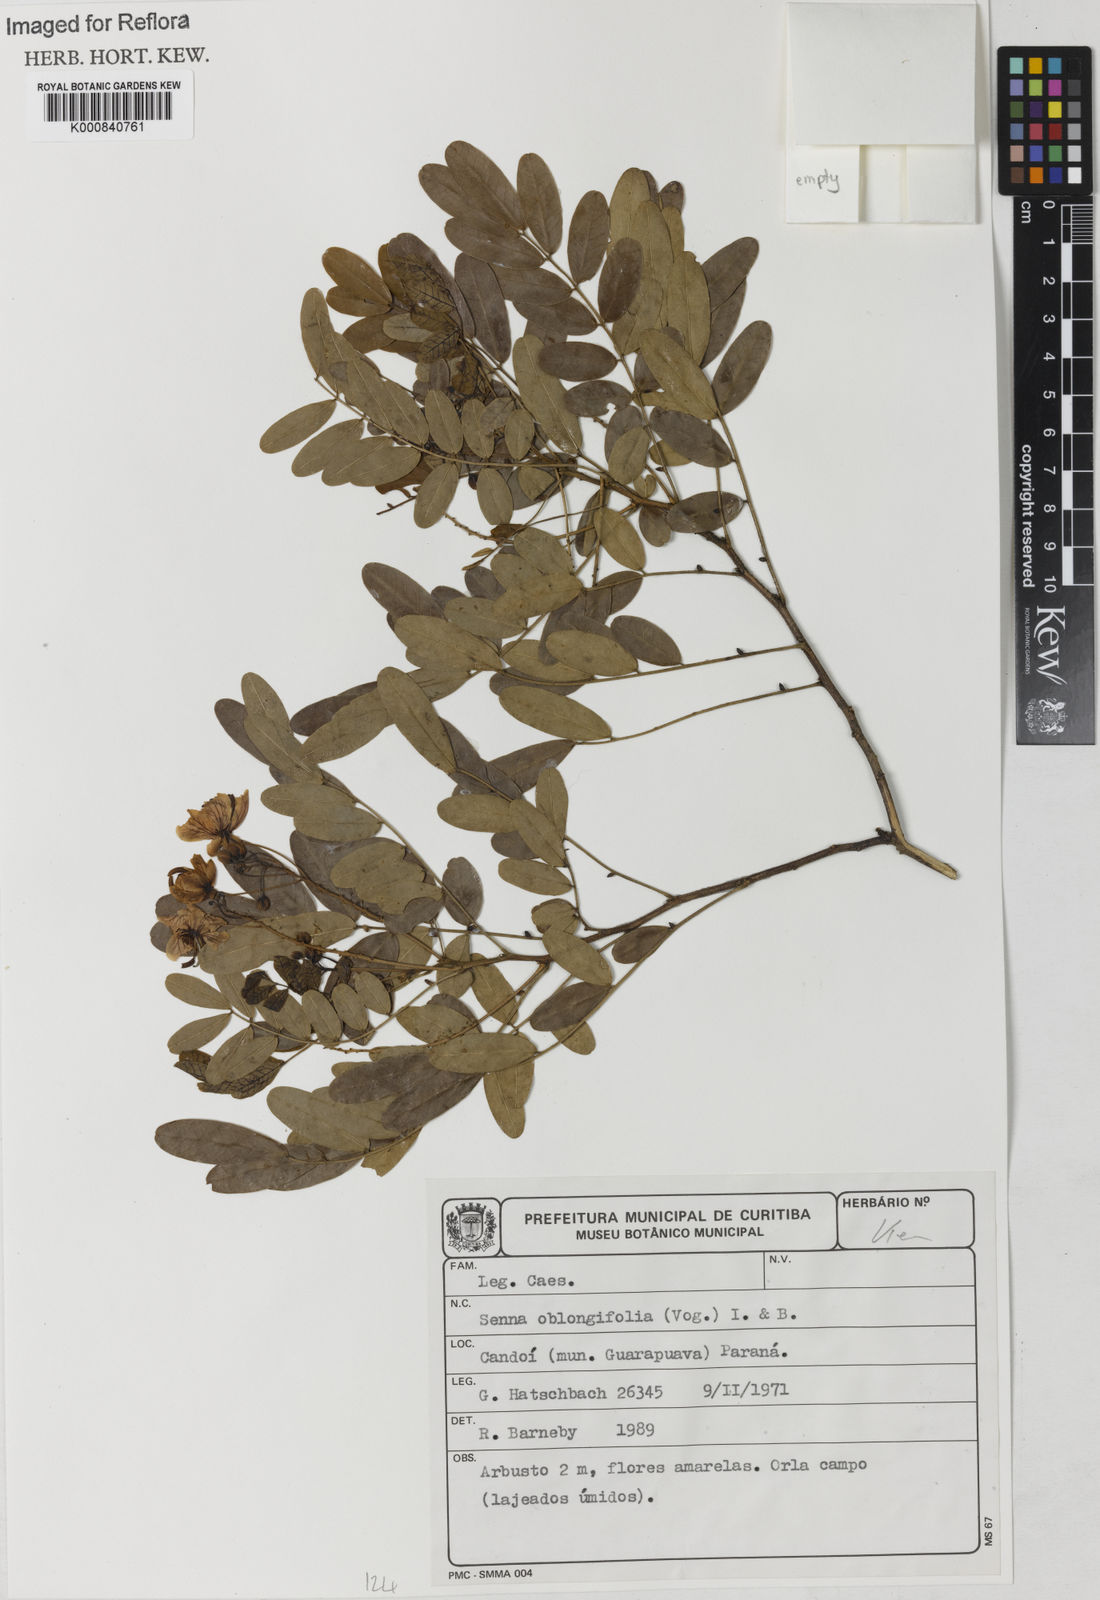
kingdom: Plantae
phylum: Tracheophyta
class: Magnoliopsida
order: Fabales
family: Fabaceae
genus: Senna
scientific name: Senna oblongifolia
